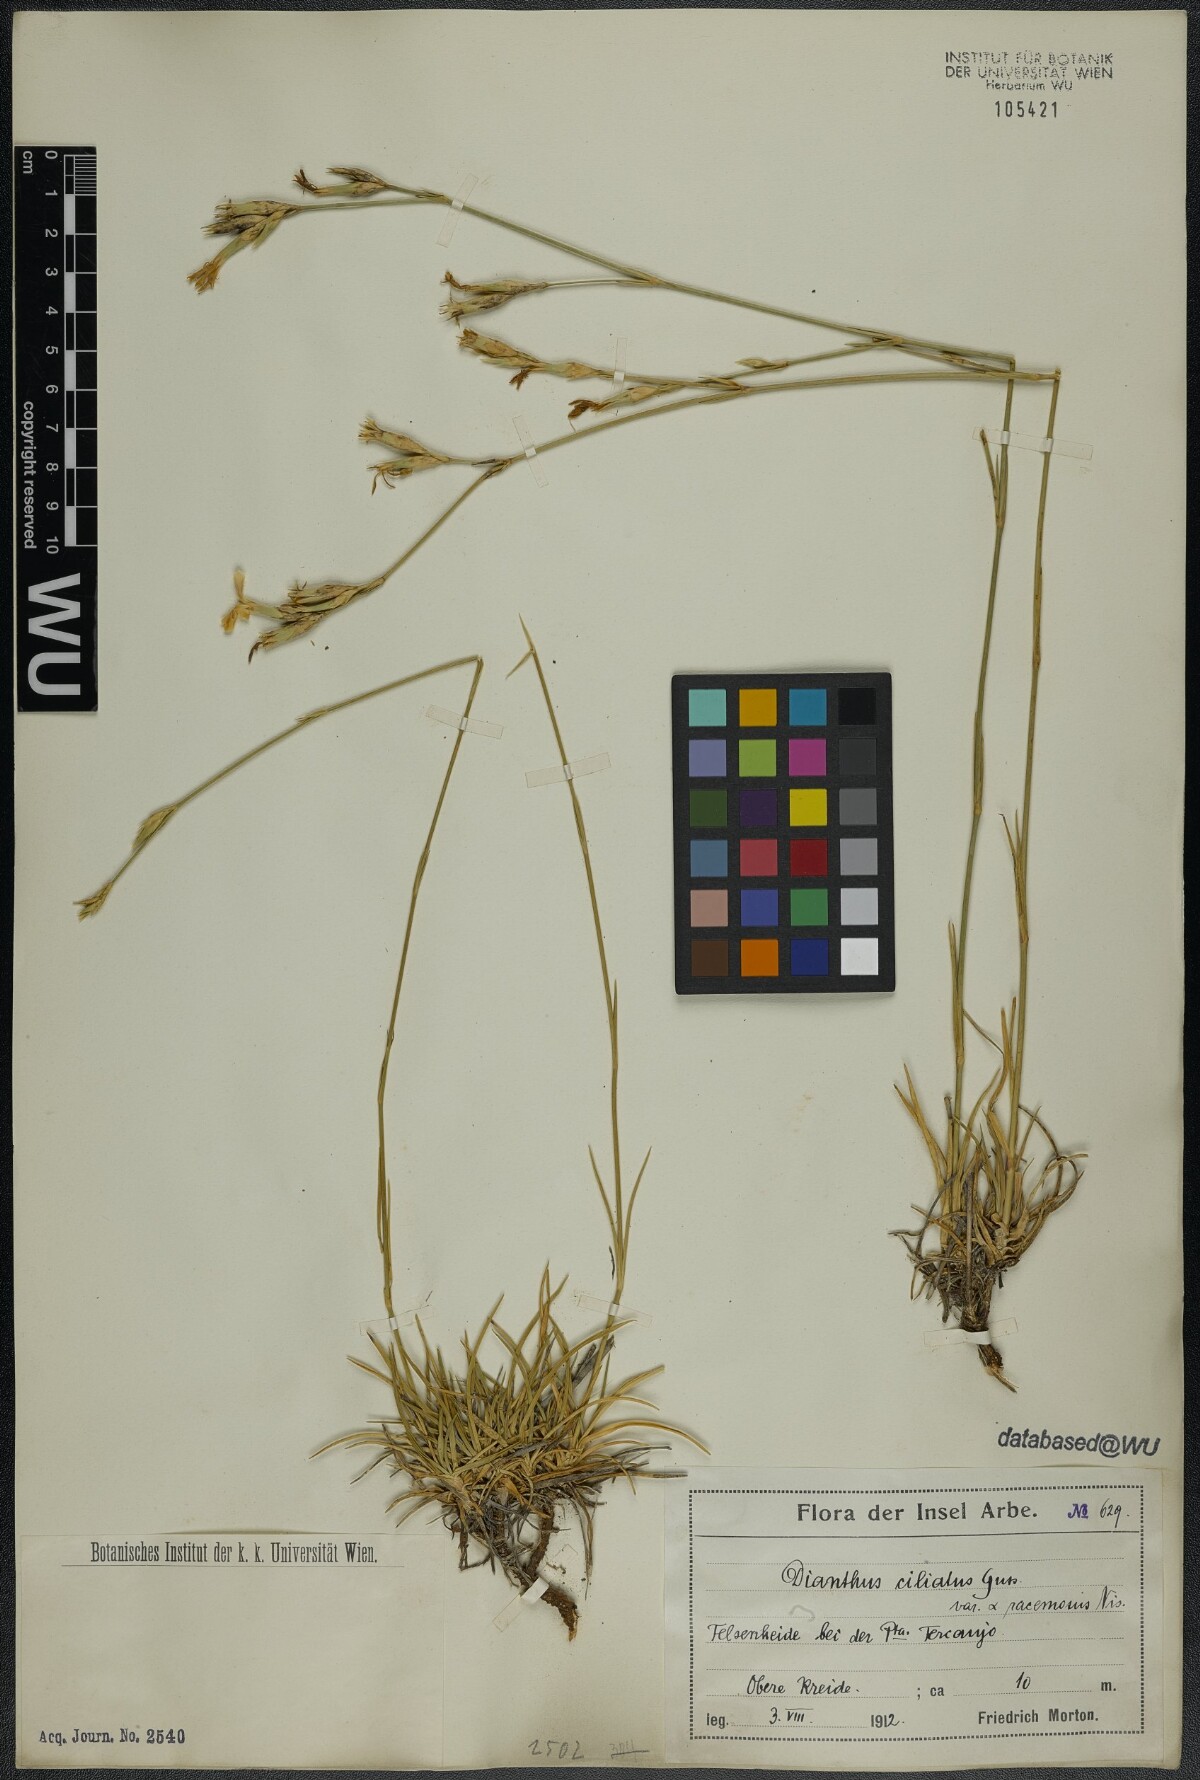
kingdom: Plantae
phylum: Tracheophyta
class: Magnoliopsida
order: Caryophyllales
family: Caryophyllaceae
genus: Dianthus
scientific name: Dianthus ciliatus
